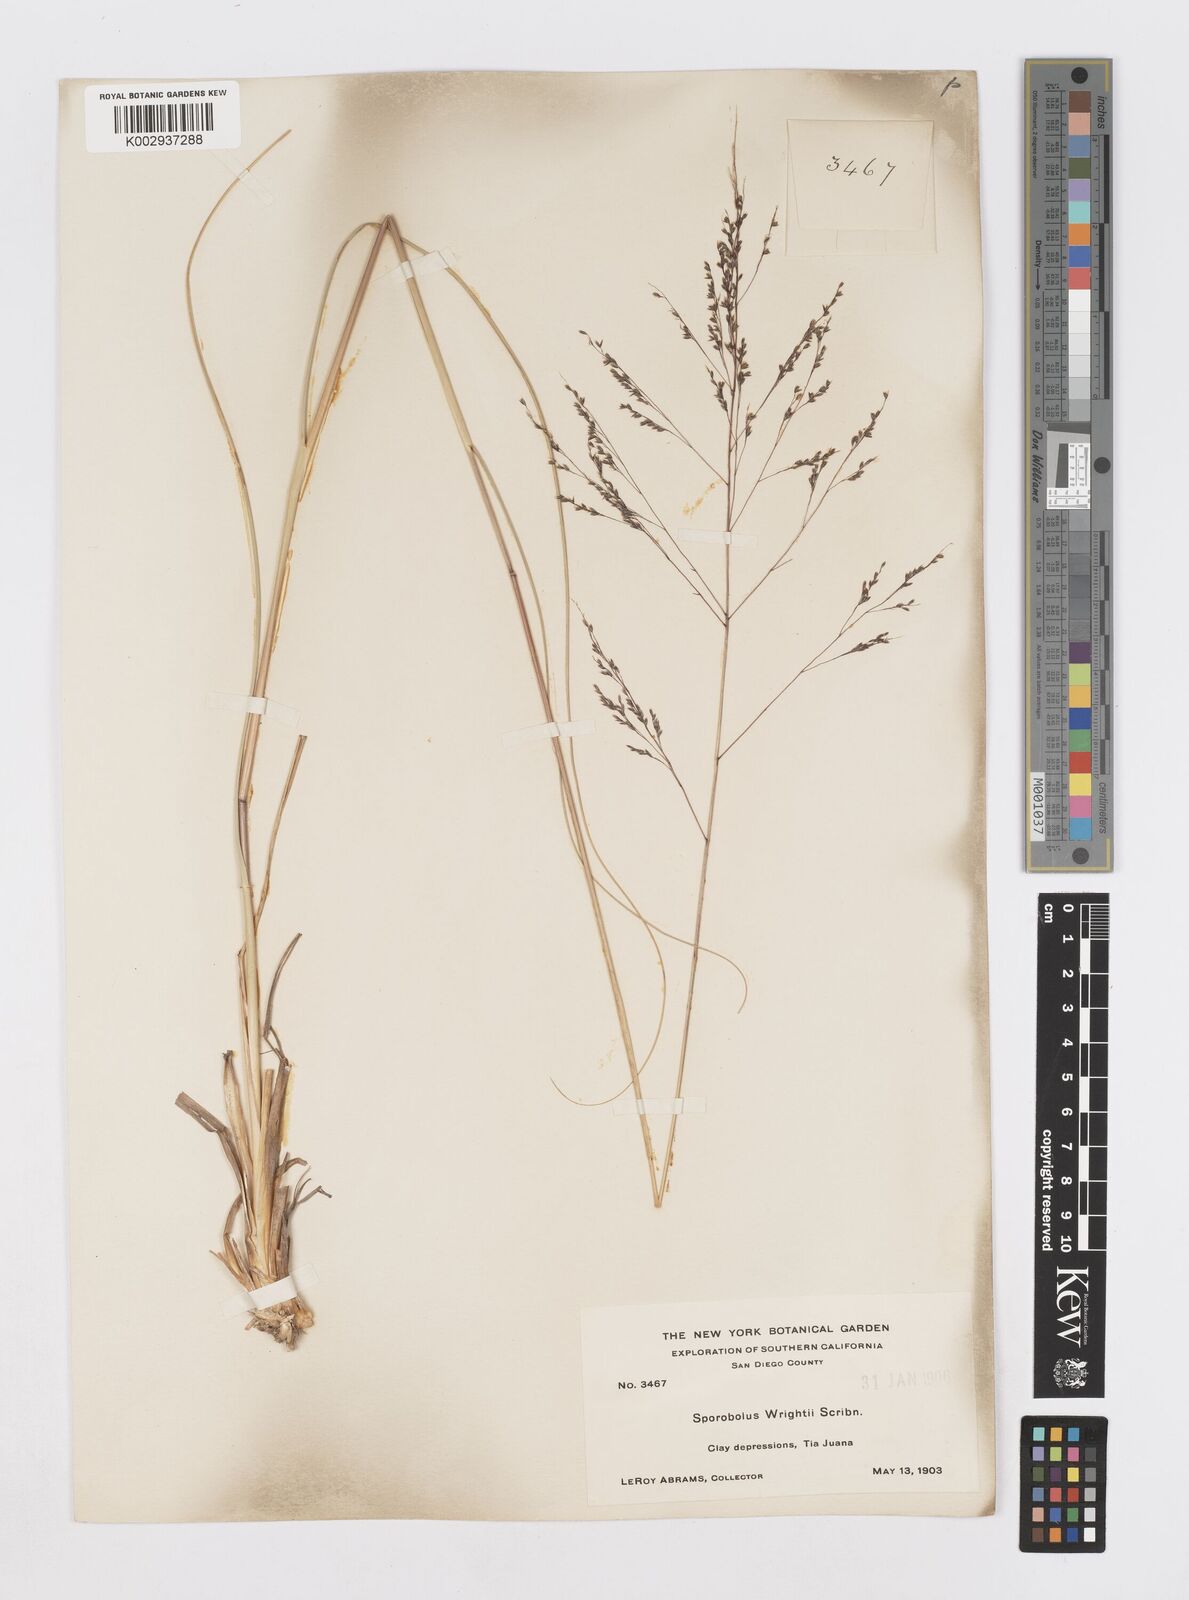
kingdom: Plantae
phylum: Tracheophyta
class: Liliopsida
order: Poales
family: Poaceae
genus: Sporobolus
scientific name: Sporobolus wrightii
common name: Big alkali sacaton
